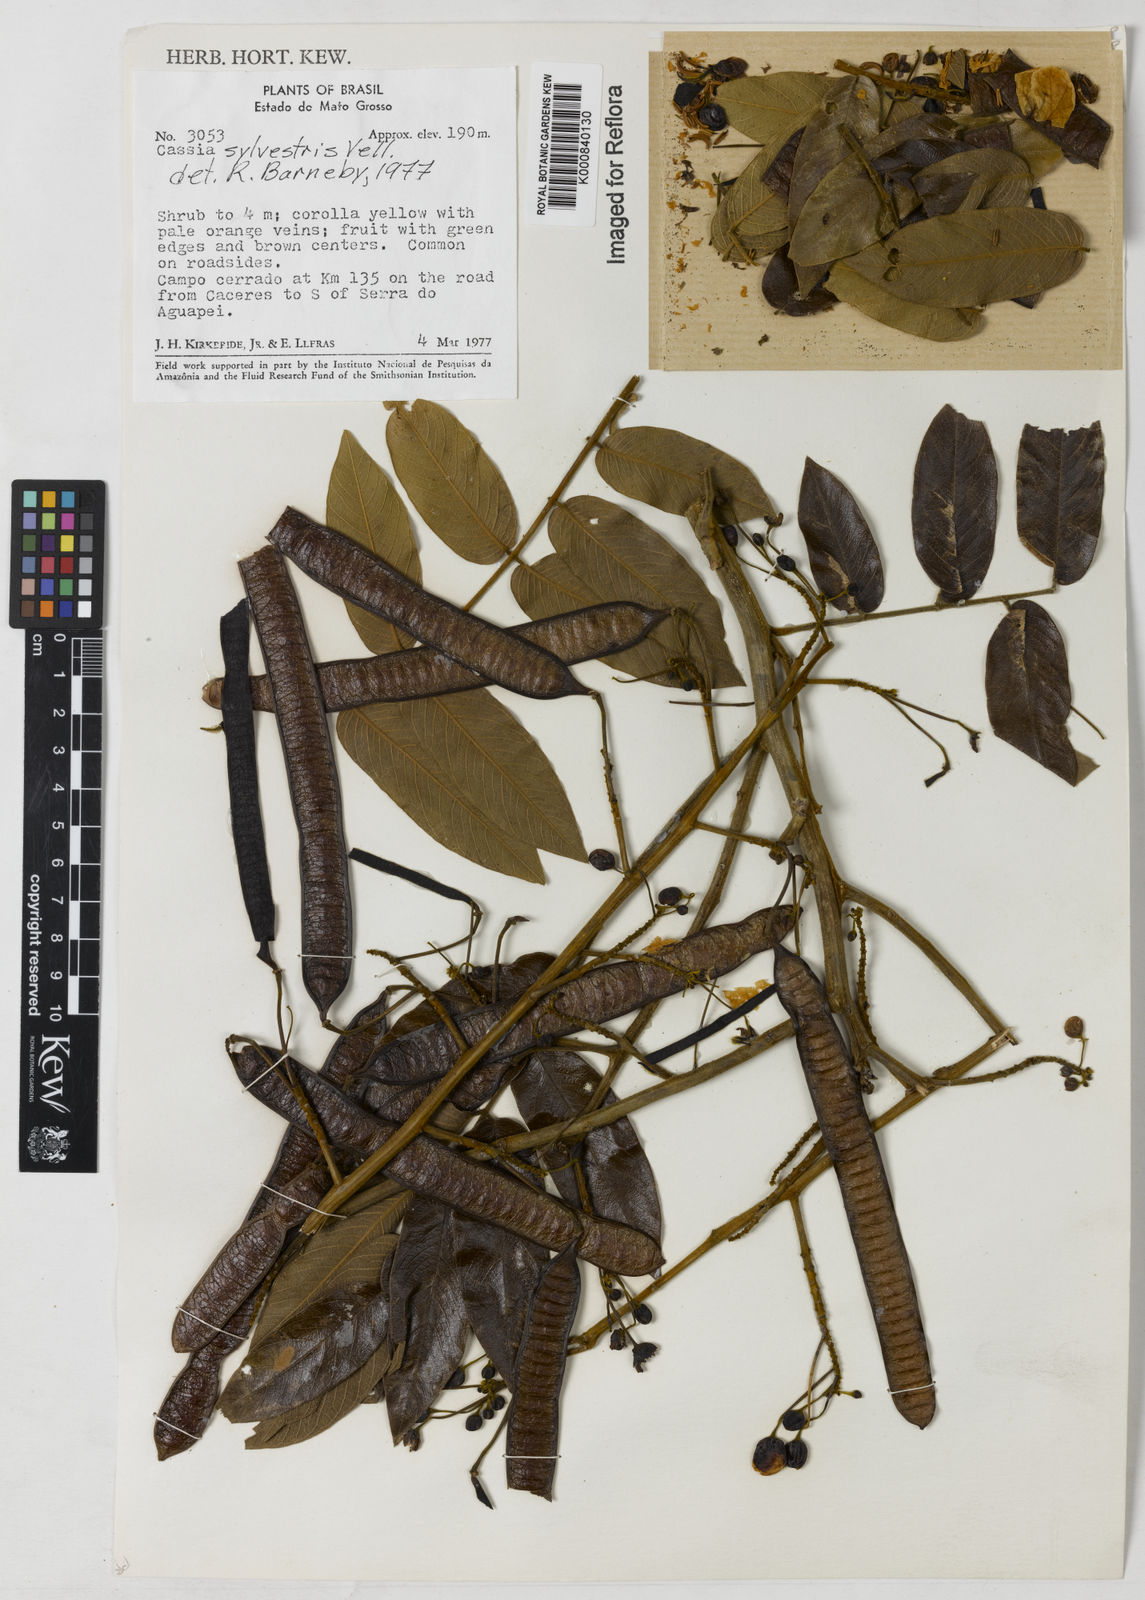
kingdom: Plantae
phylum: Tracheophyta
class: Magnoliopsida
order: Fabales
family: Fabaceae
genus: Senna
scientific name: Senna silvestris
